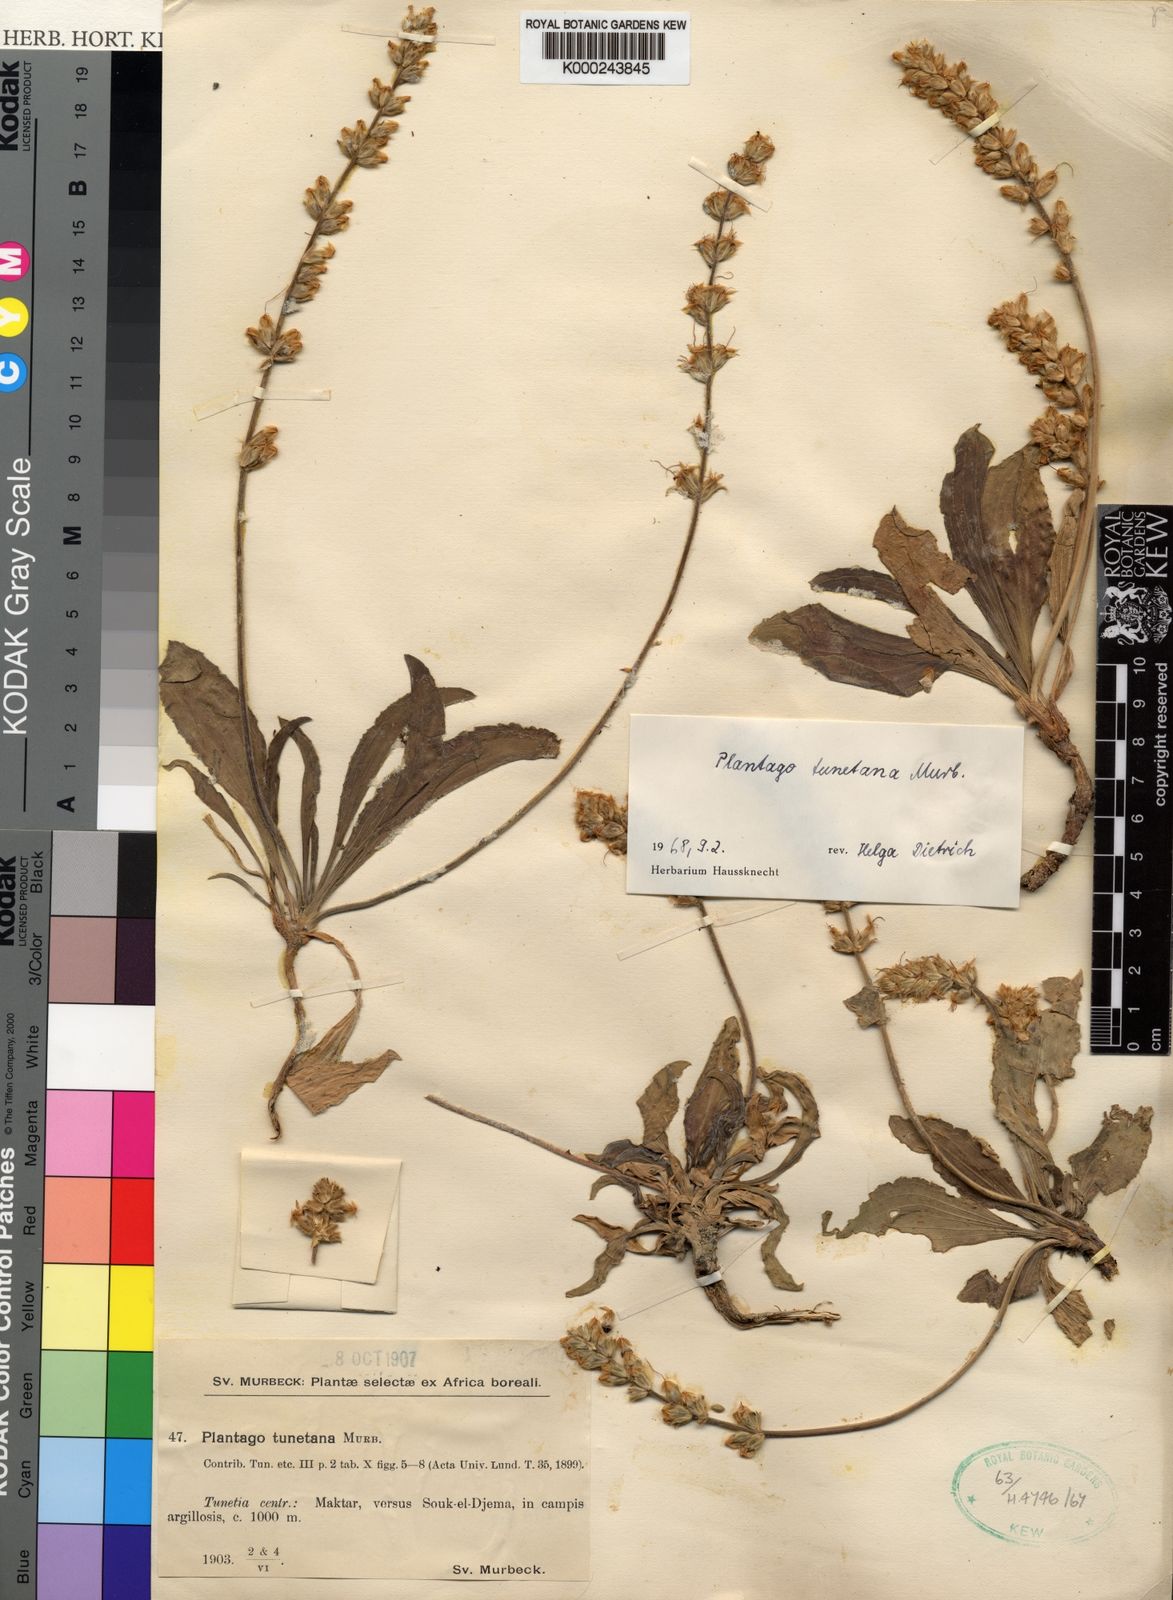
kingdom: Plantae
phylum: Tracheophyta
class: Magnoliopsida
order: Lamiales
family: Plantaginaceae
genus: Plantago
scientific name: Plantago tunetana
